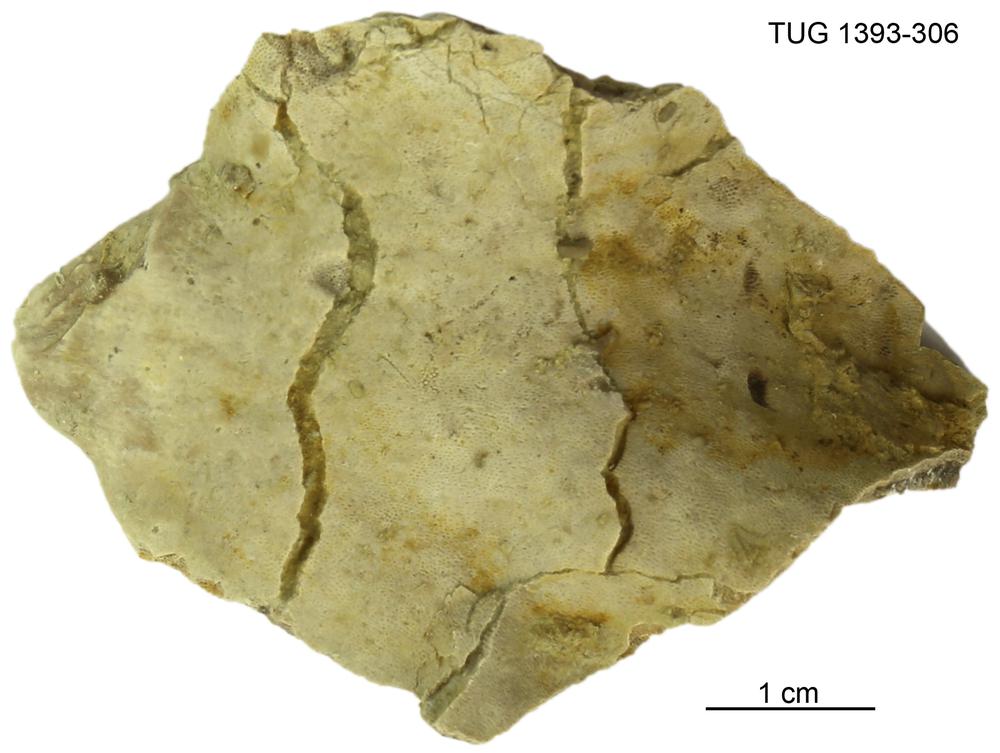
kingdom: Animalia
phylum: Bryozoa
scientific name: Bryozoa
